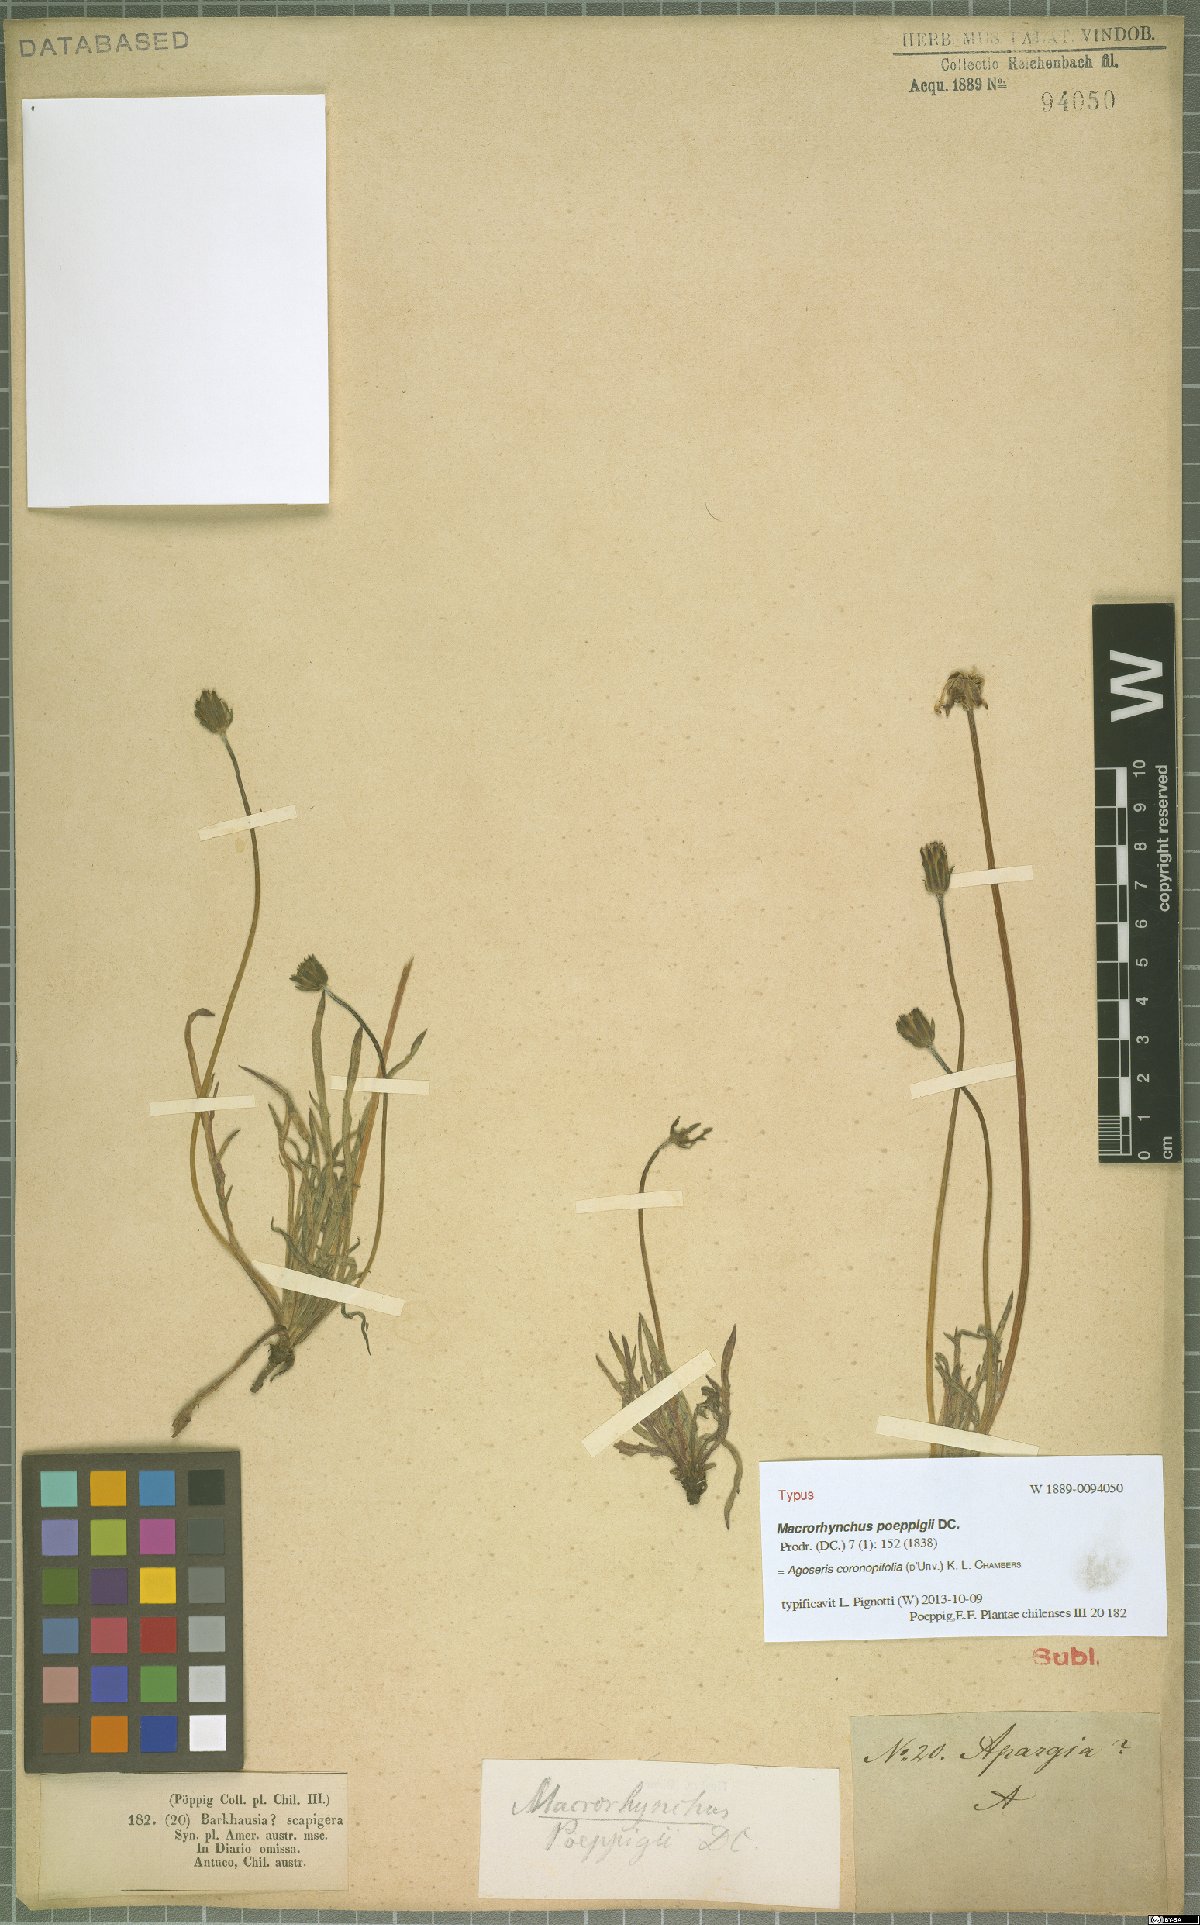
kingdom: Plantae
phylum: Tracheophyta
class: Magnoliopsida
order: Asterales
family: Asteraceae
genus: Agoseris
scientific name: Agoseris coronopifolia
